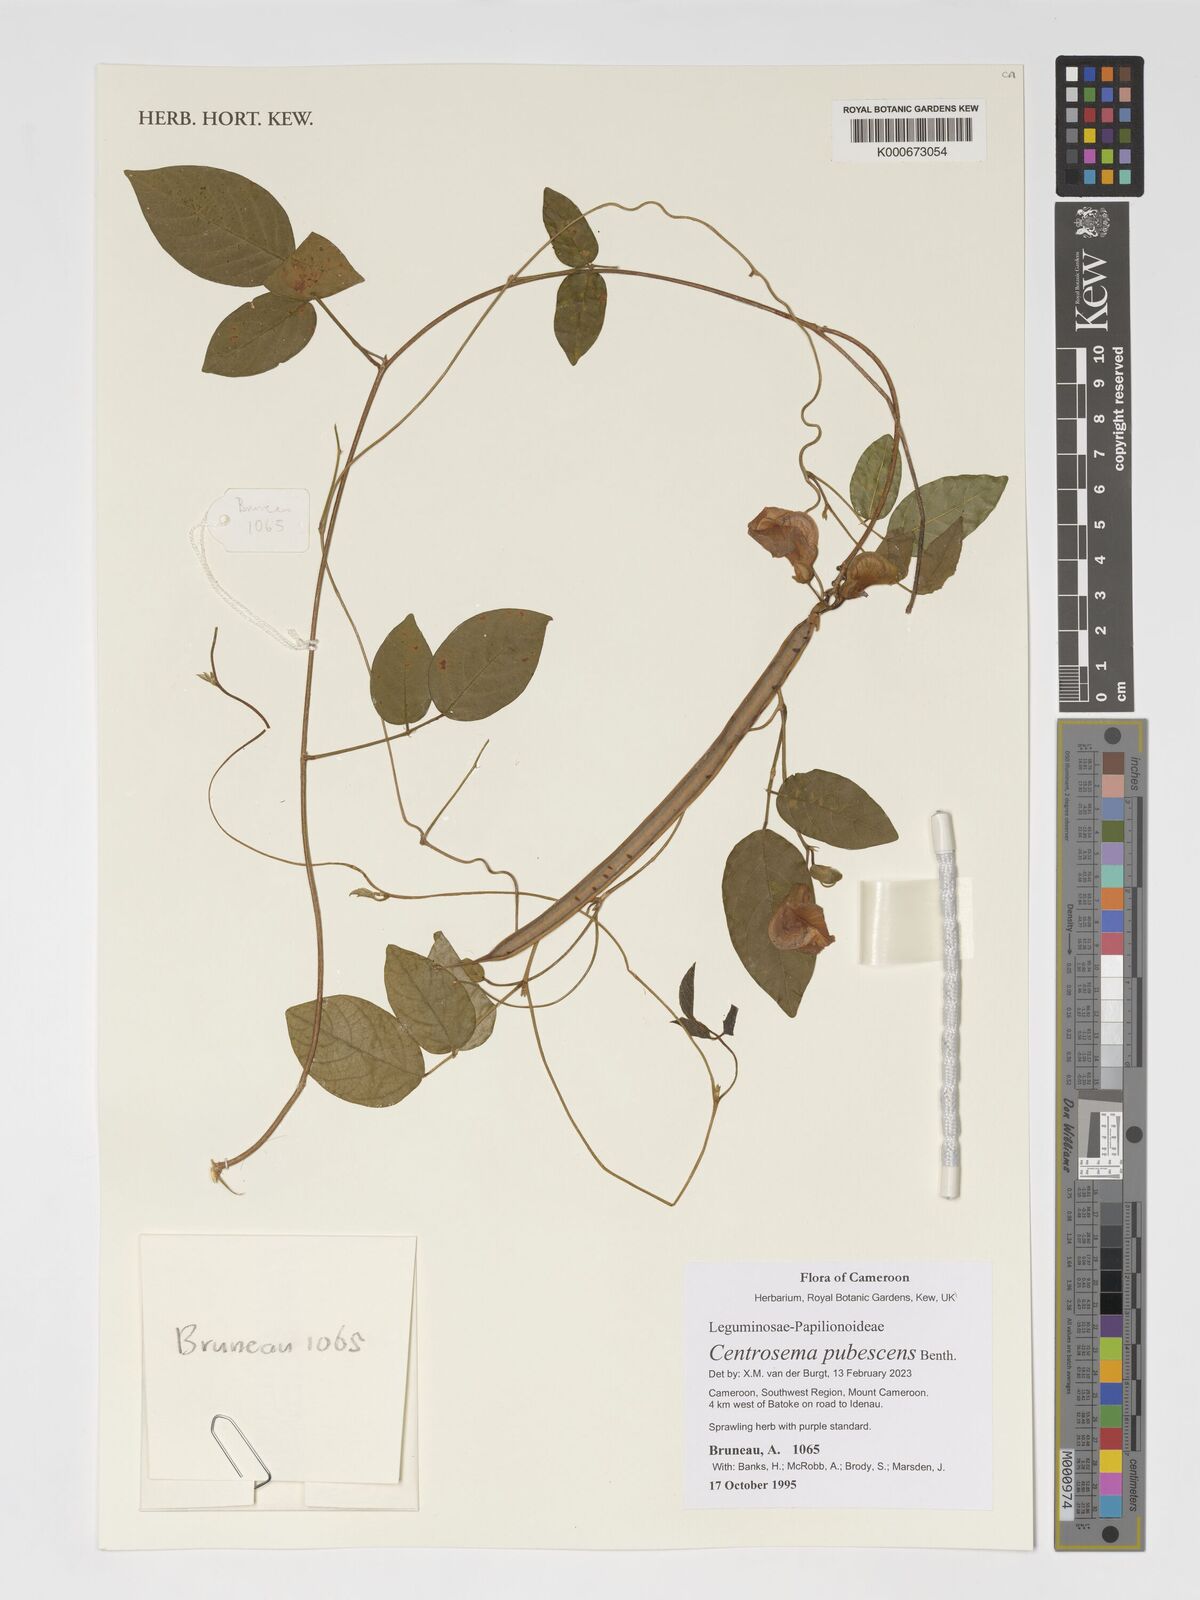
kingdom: Plantae
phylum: Tracheophyta
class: Magnoliopsida
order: Fabales
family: Fabaceae
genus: Centrosema
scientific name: Centrosema pubescens
